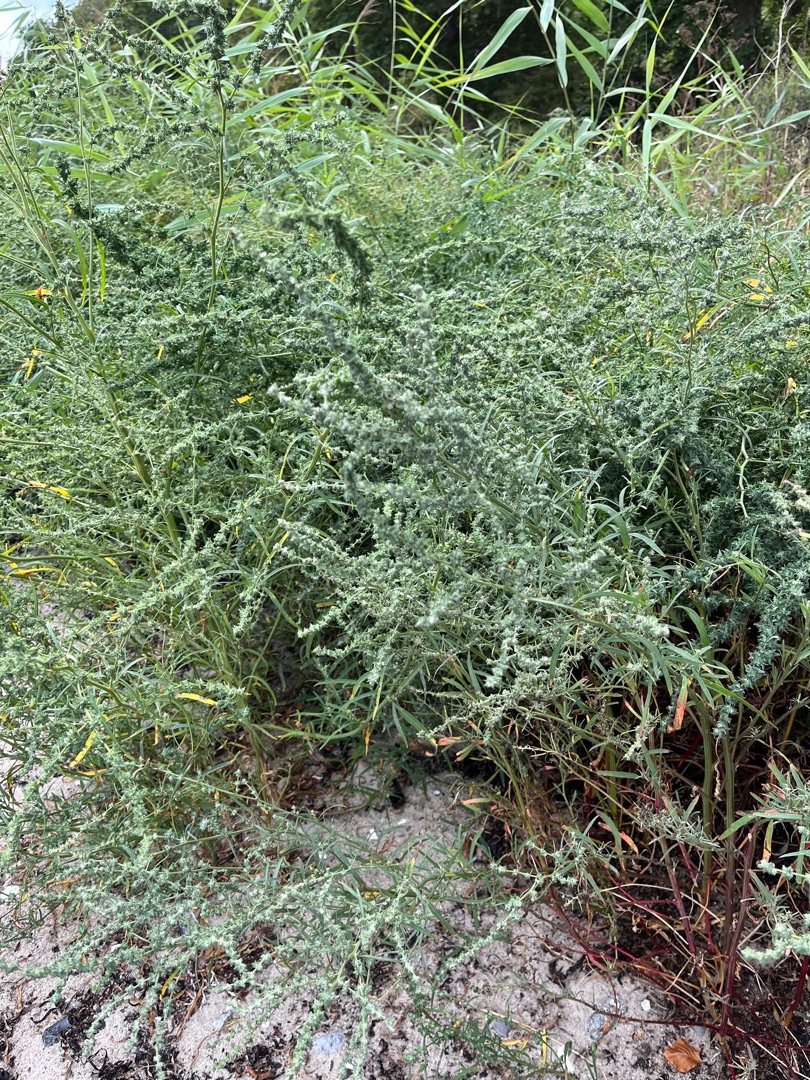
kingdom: Plantae
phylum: Tracheophyta
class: Magnoliopsida
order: Caryophyllales
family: Amaranthaceae
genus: Atriplex
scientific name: Atriplex littoralis
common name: Strand-mælde
